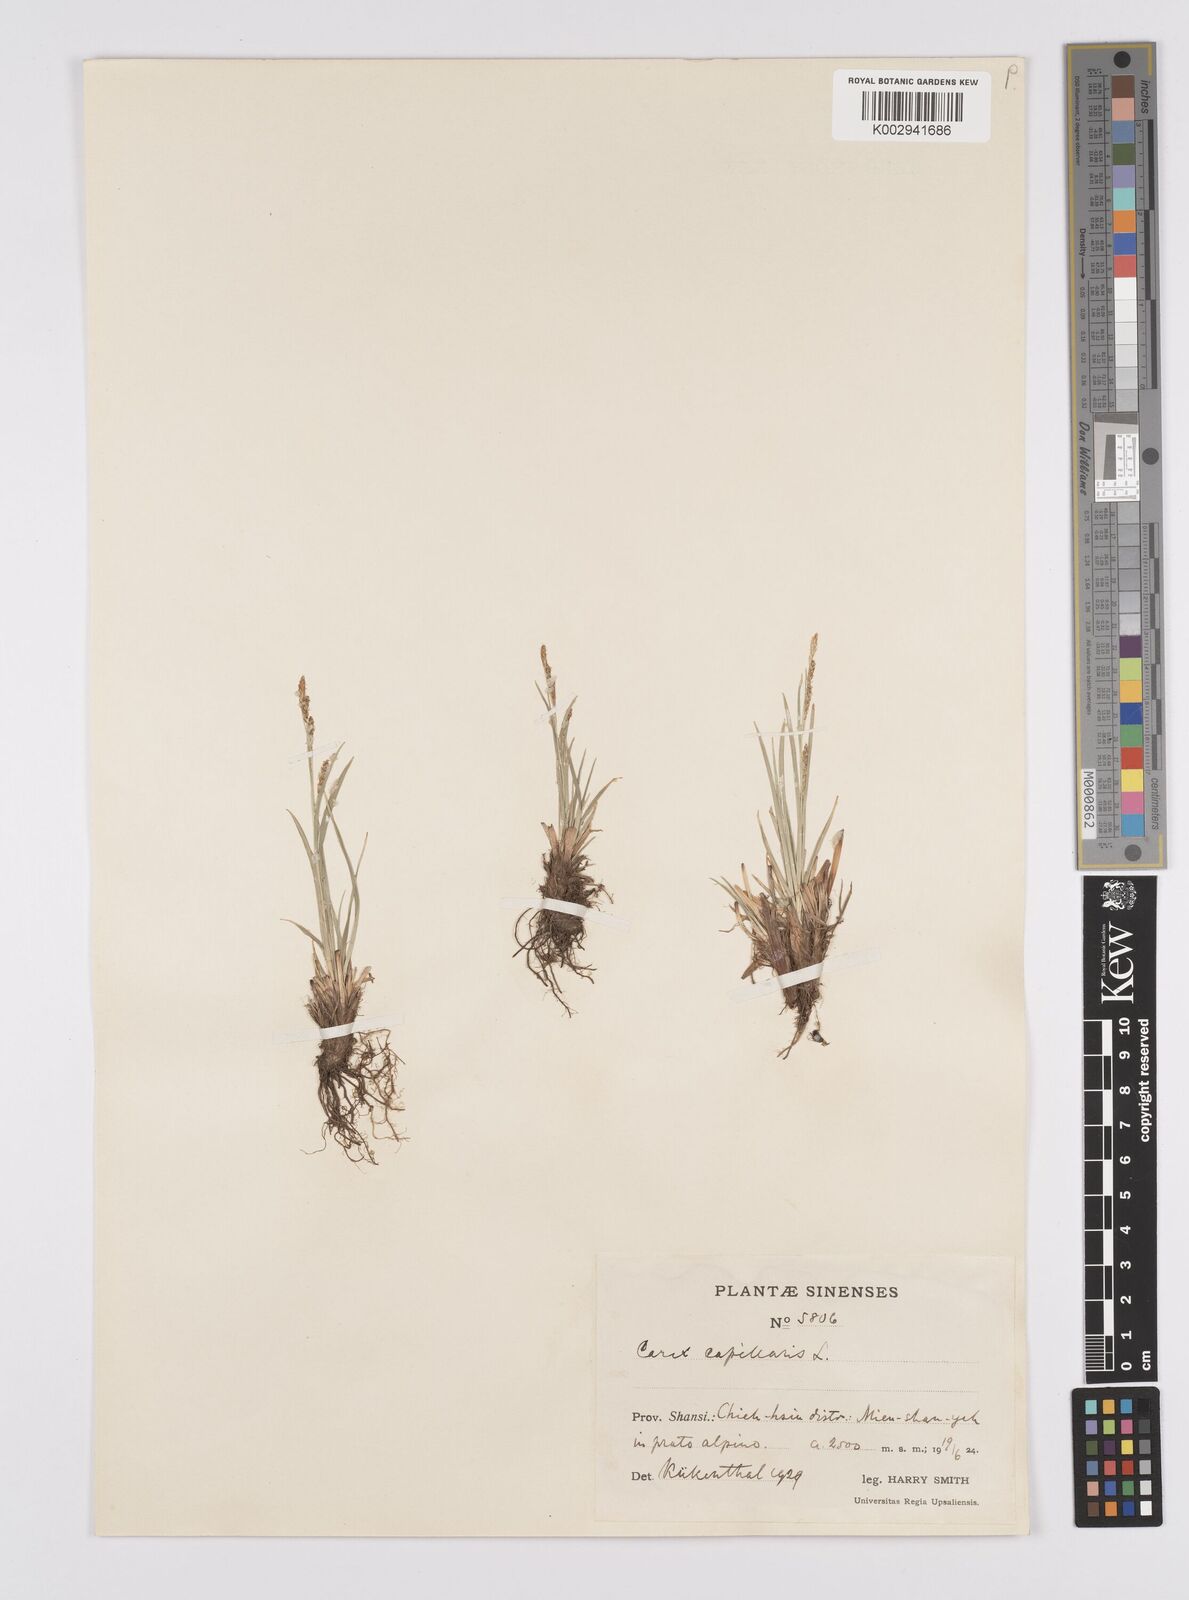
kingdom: Plantae
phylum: Tracheophyta
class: Liliopsida
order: Poales
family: Cyperaceae
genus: Carex
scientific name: Carex capillaris
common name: Hair sedge
